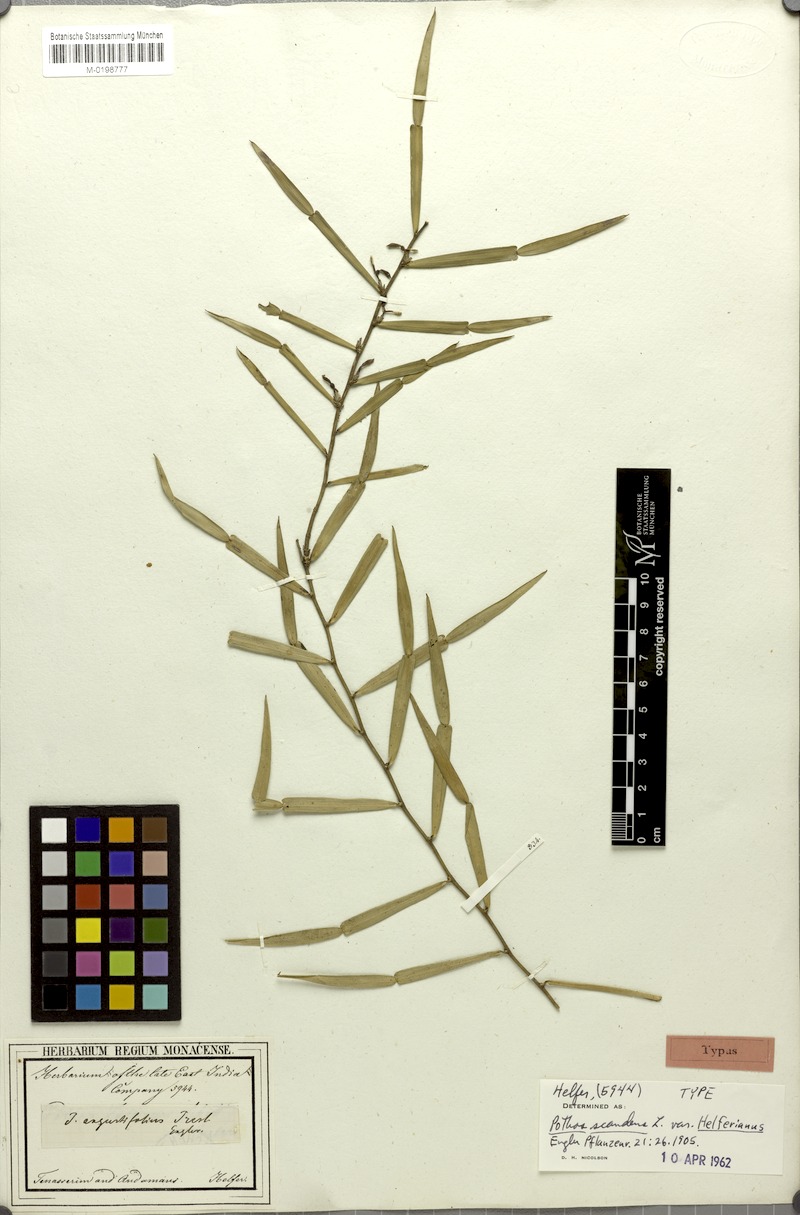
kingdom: Plantae
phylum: Tracheophyta
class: Liliopsida
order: Alismatales
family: Araceae
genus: Pothos
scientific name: Pothos scandens
